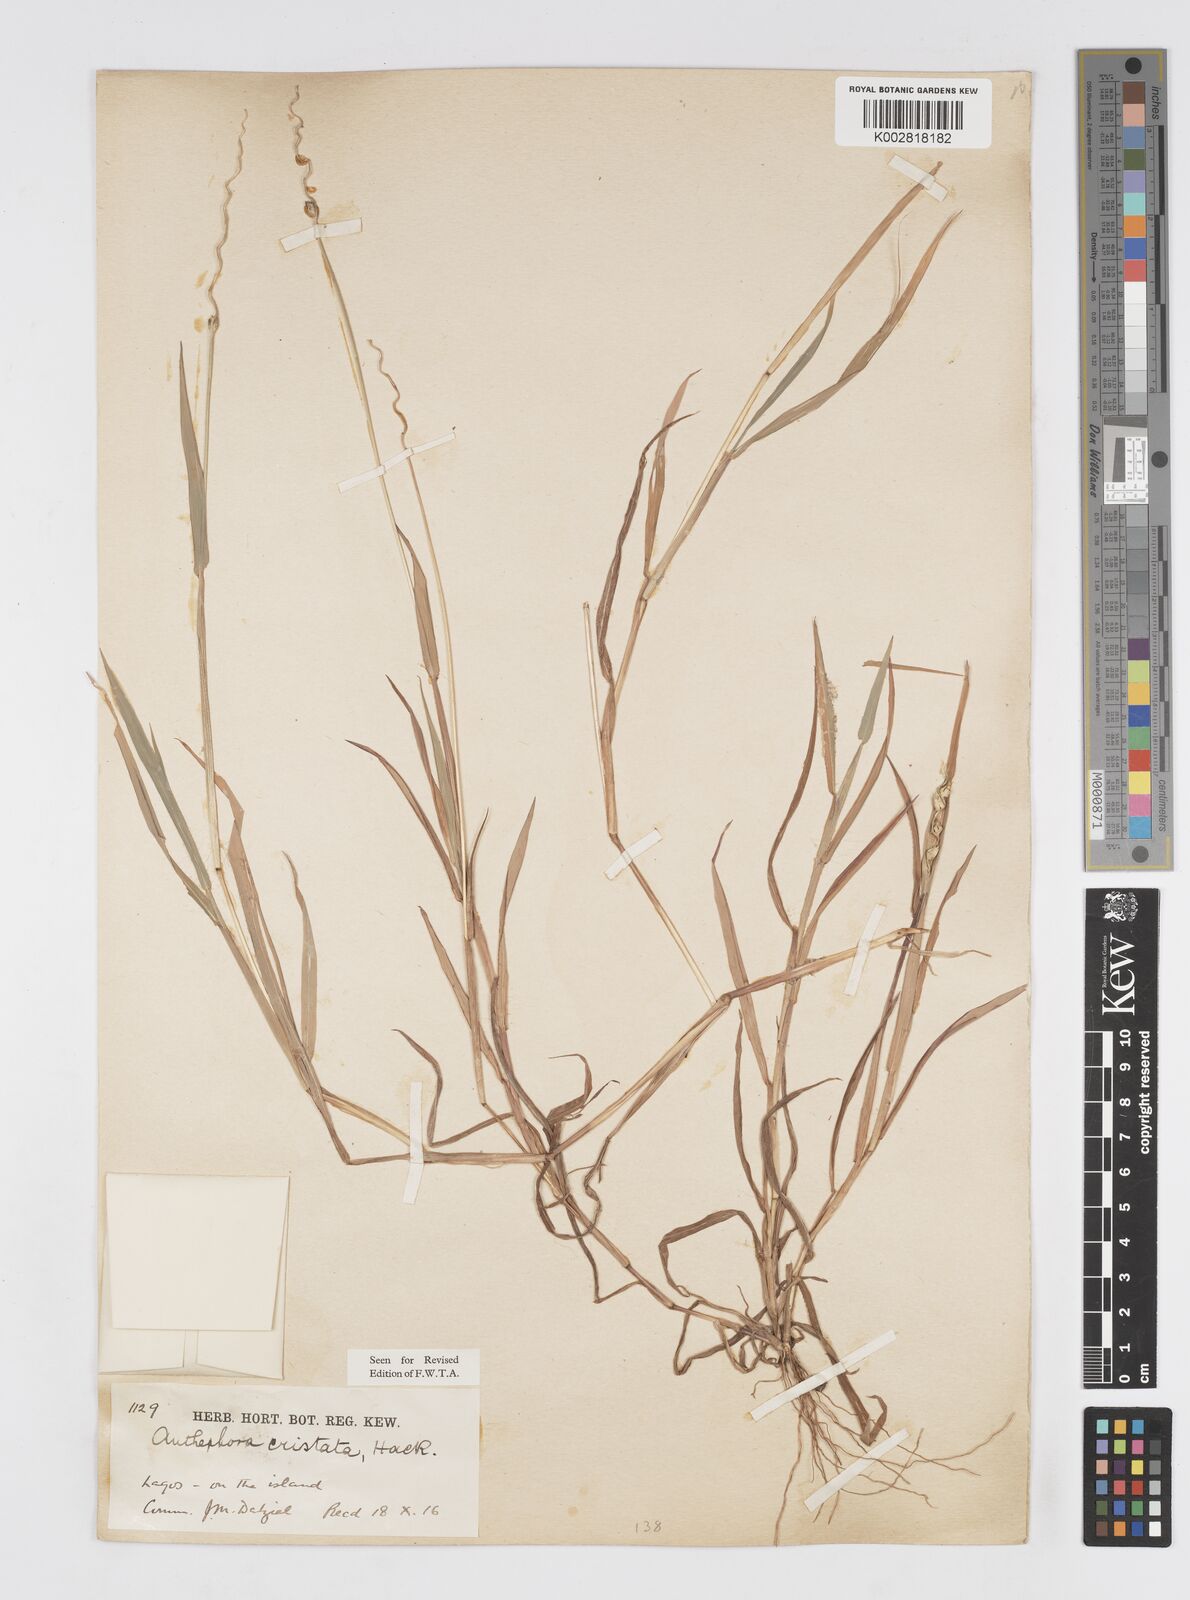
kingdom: Plantae
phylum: Tracheophyta
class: Liliopsida
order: Poales
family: Poaceae
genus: Anthephora
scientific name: Anthephora cristata
